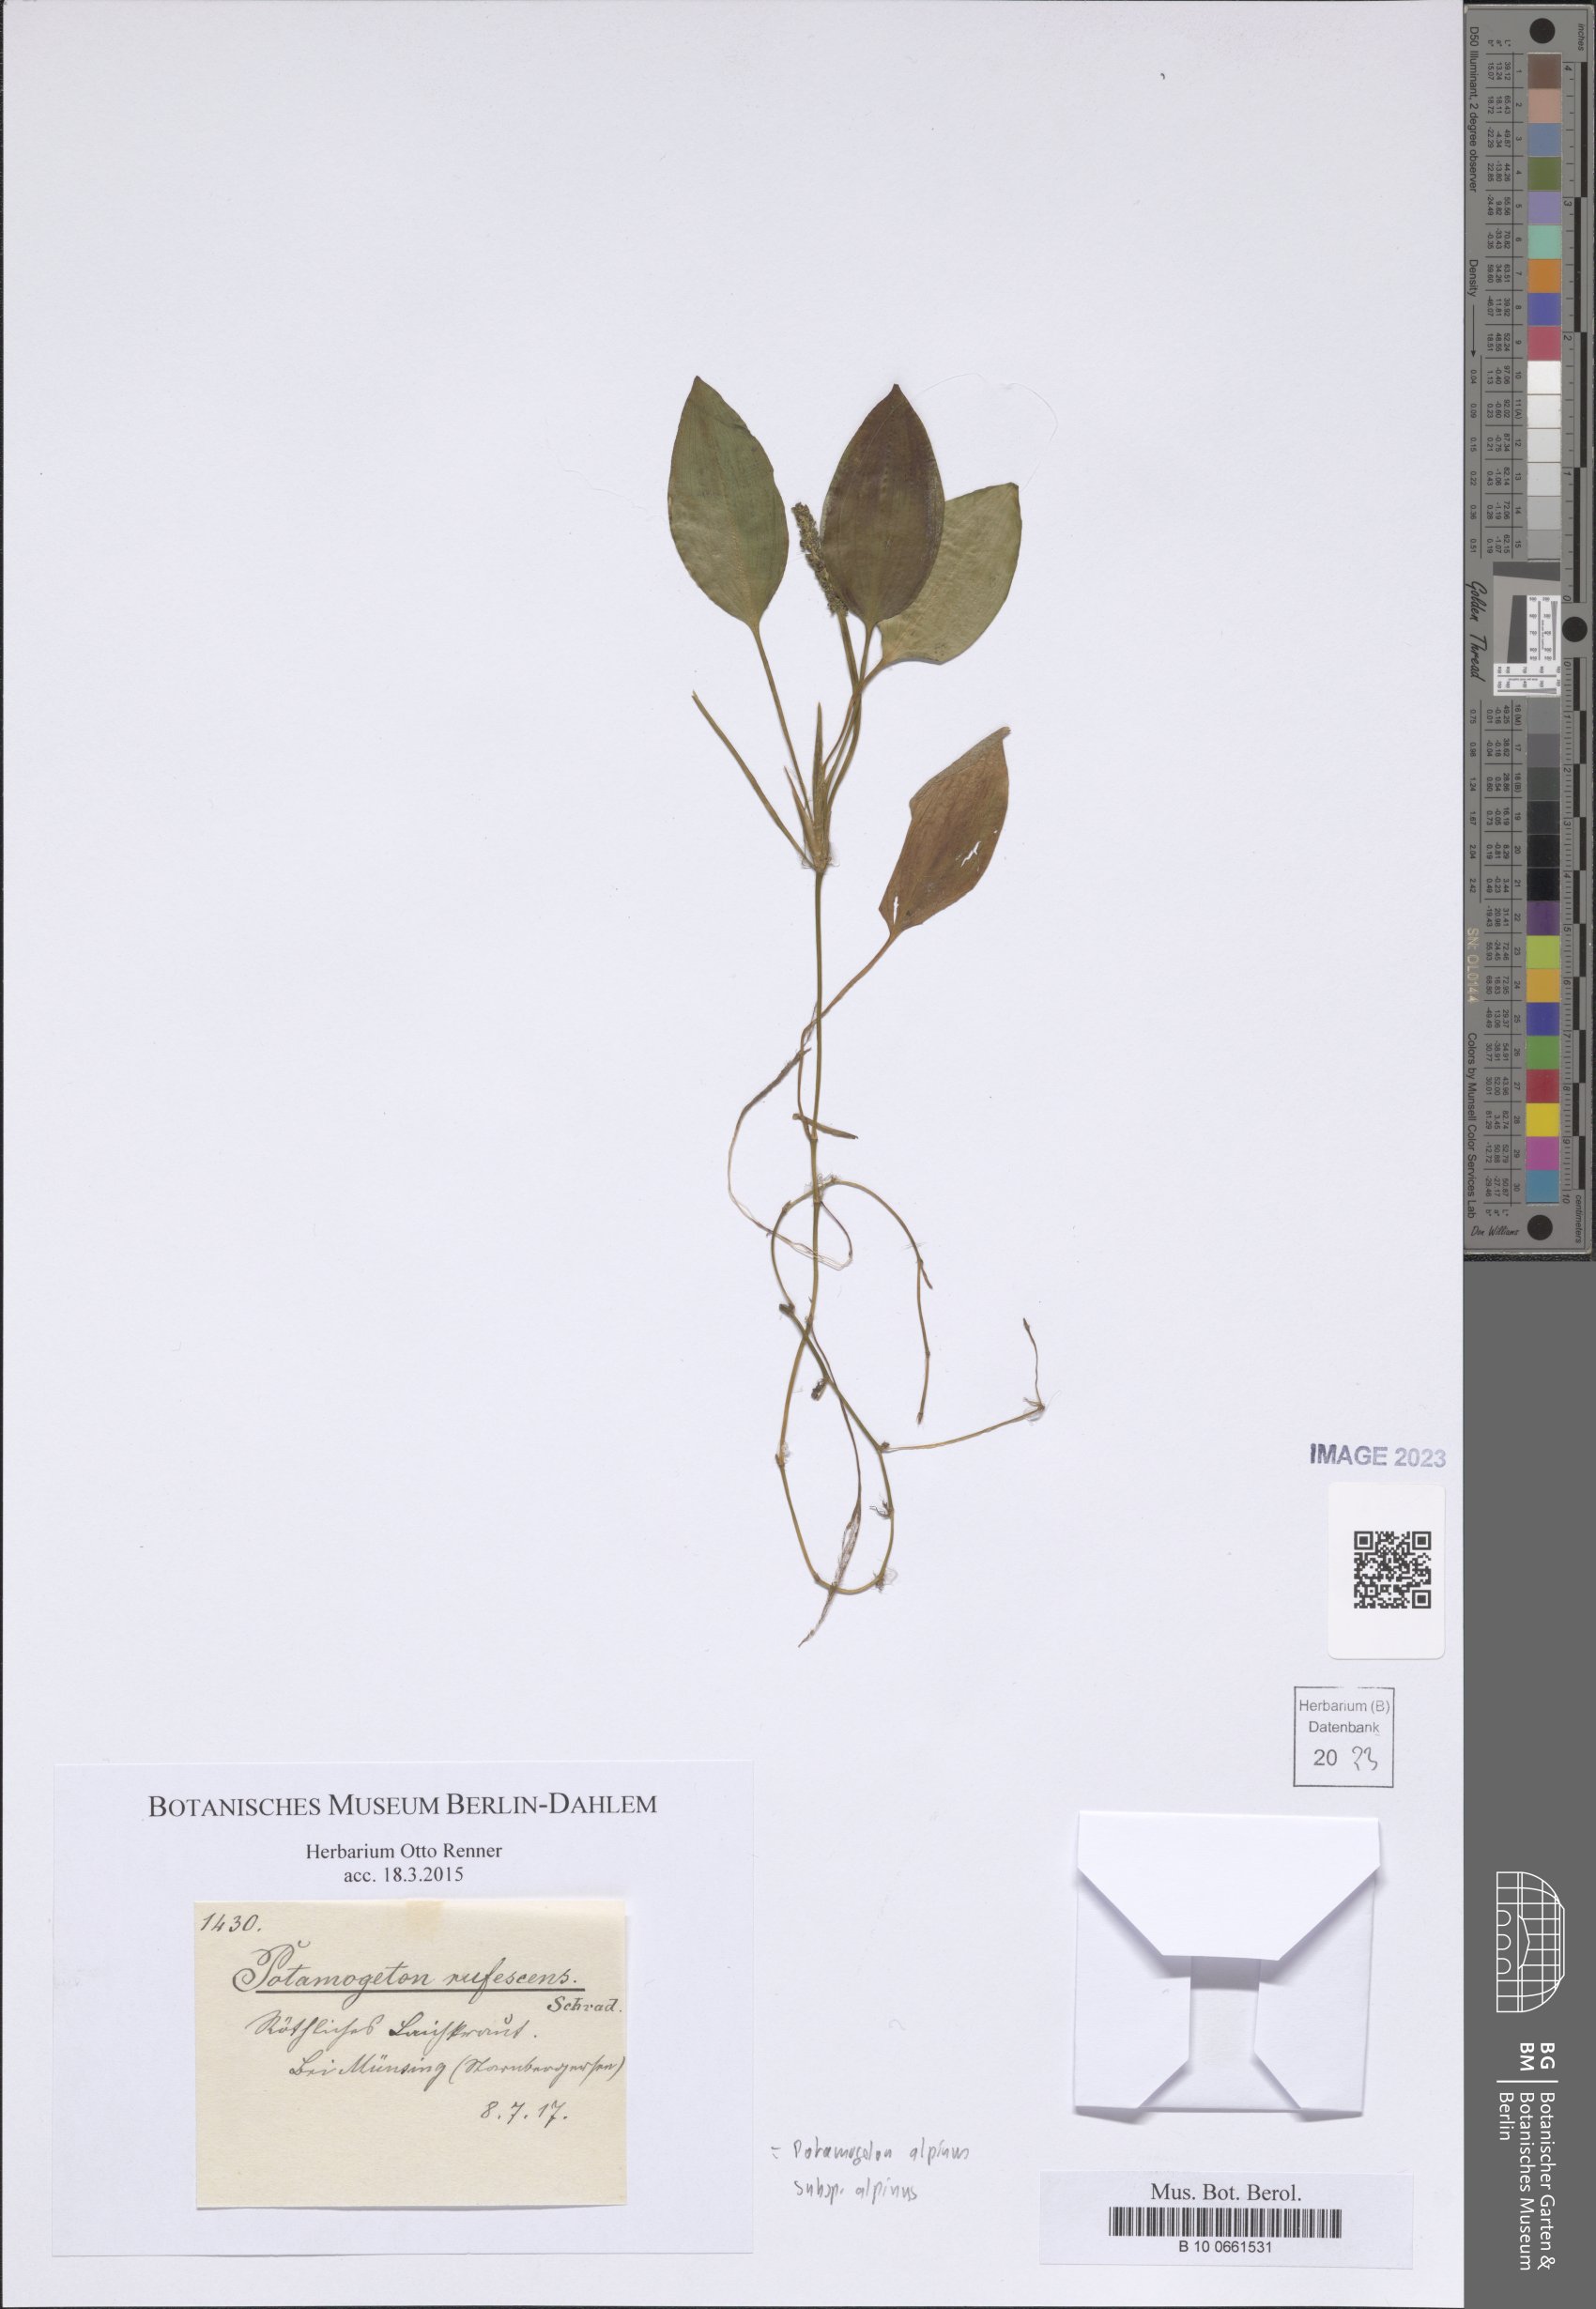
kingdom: Plantae
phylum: Tracheophyta
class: Liliopsida
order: Alismatales
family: Potamogetonaceae
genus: Potamogeton
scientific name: Potamogeton alpinus
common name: Red pondweed
